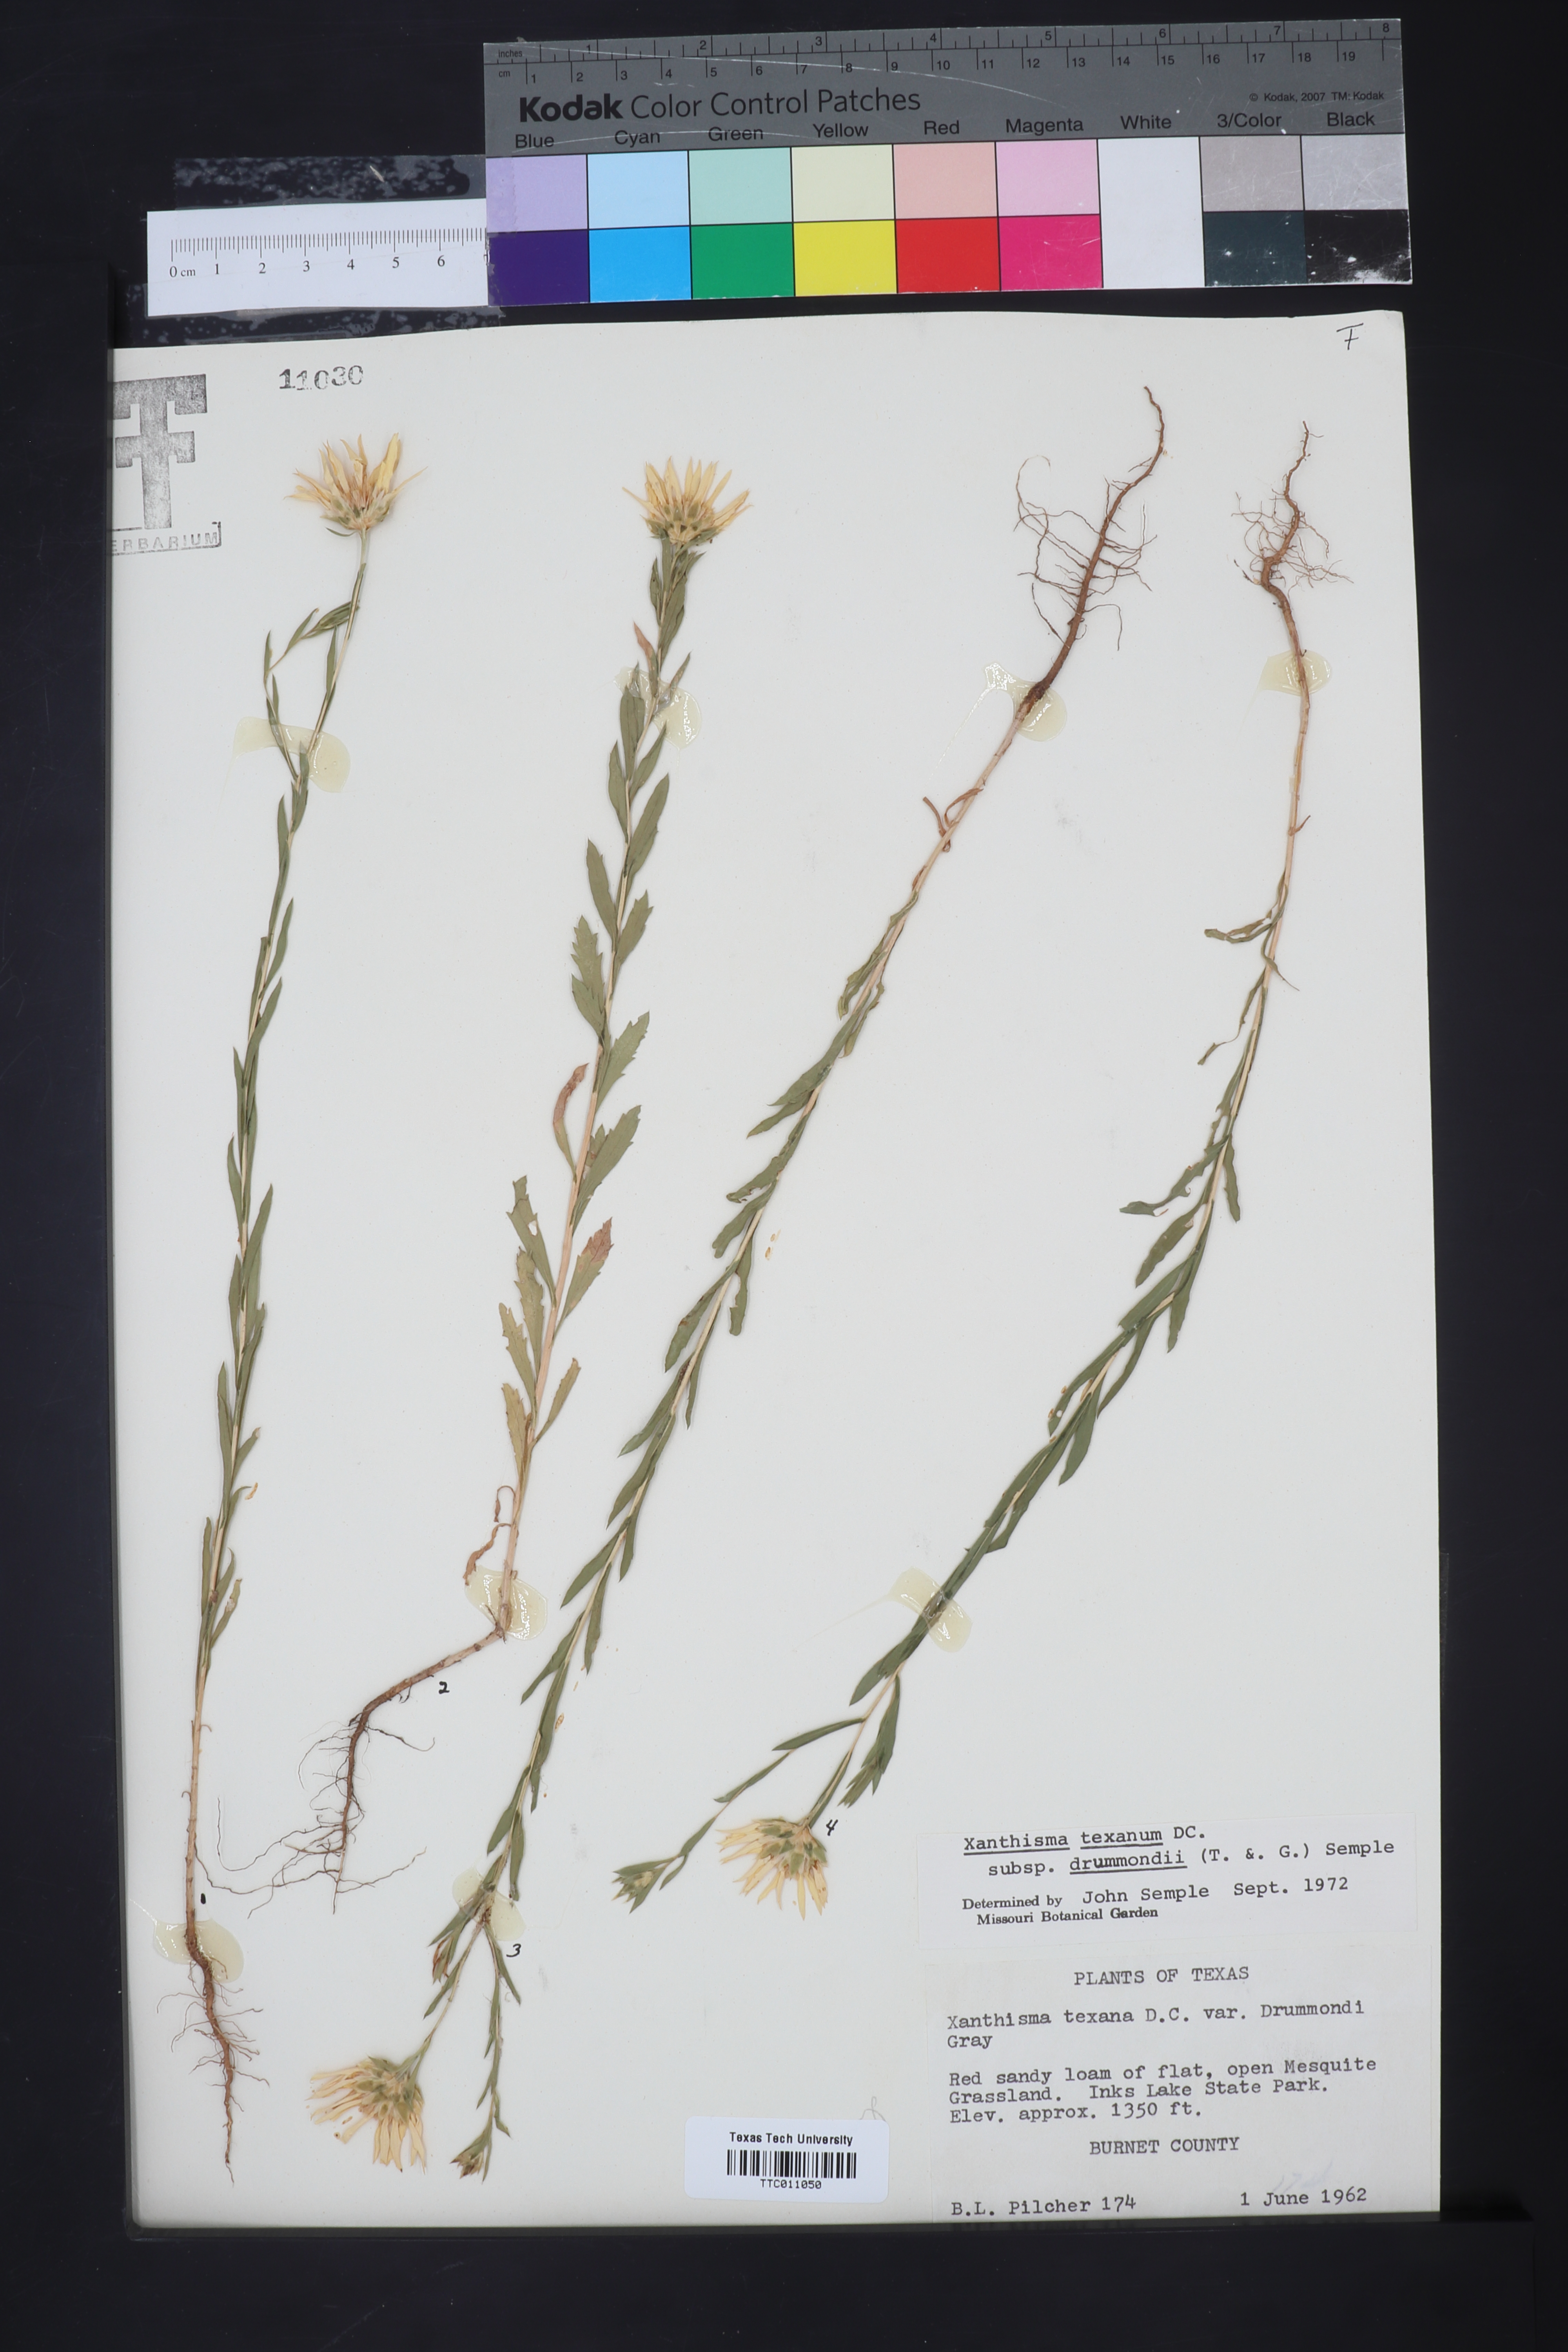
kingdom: Plantae
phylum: Tracheophyta
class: Magnoliopsida
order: Asterales
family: Asteraceae
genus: Xanthisma
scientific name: Xanthisma texanum
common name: Texas sleepy daisy
